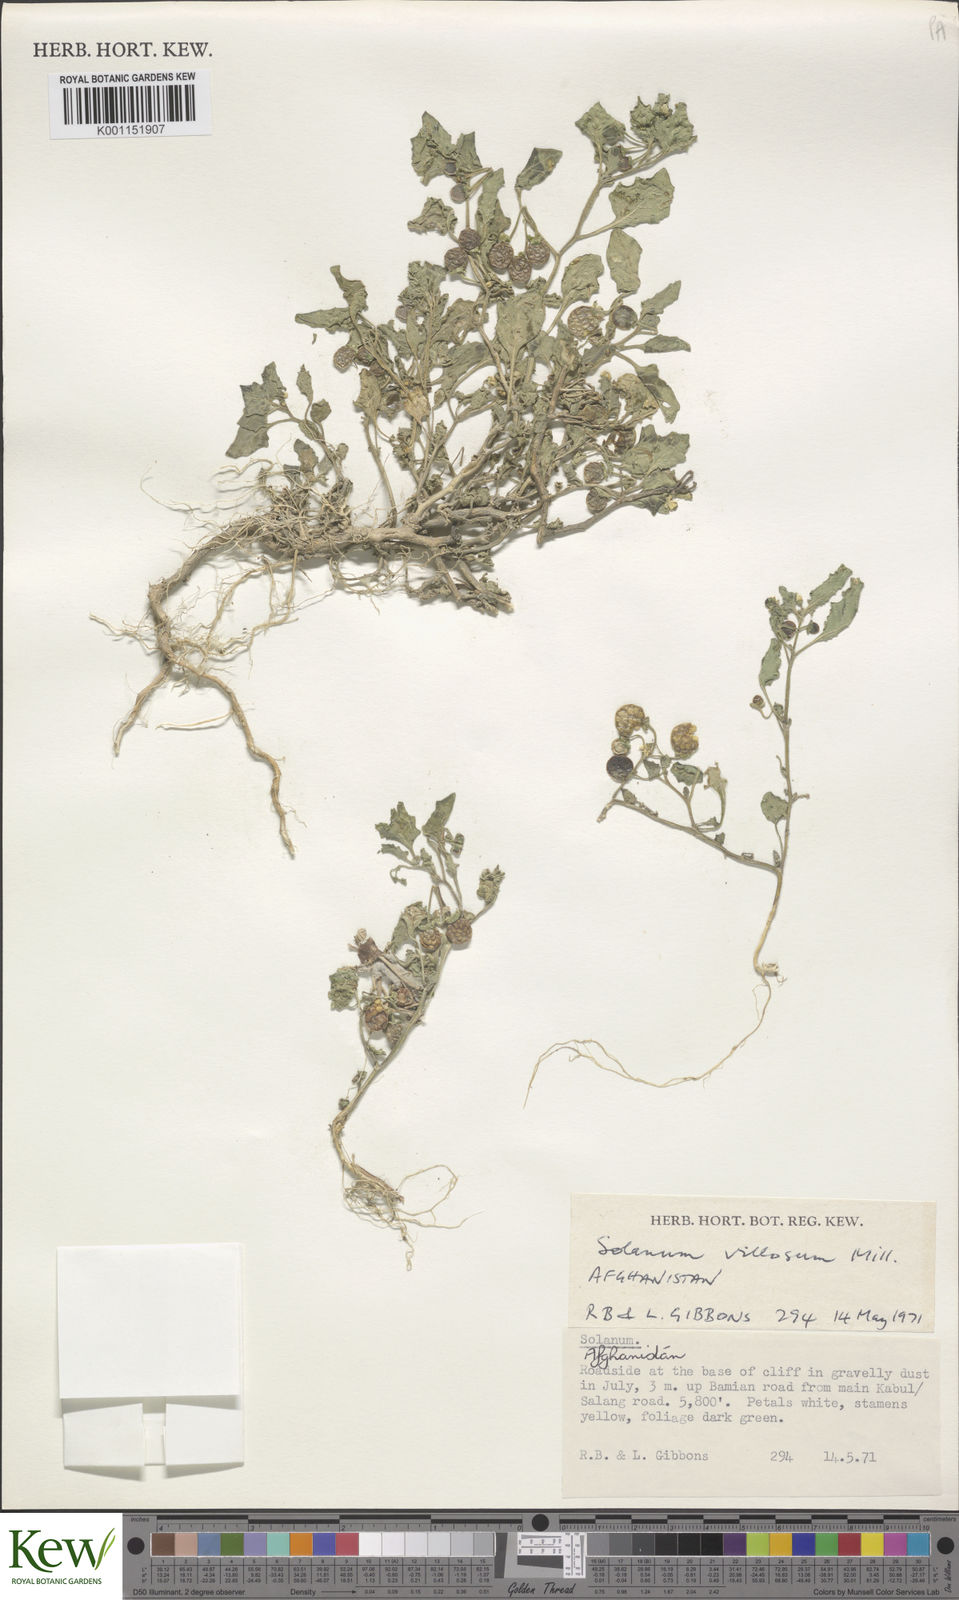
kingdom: Plantae
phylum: Tracheophyta
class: Magnoliopsida
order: Solanales
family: Solanaceae
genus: Solanum
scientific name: Solanum villosum
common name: Red nightshade
